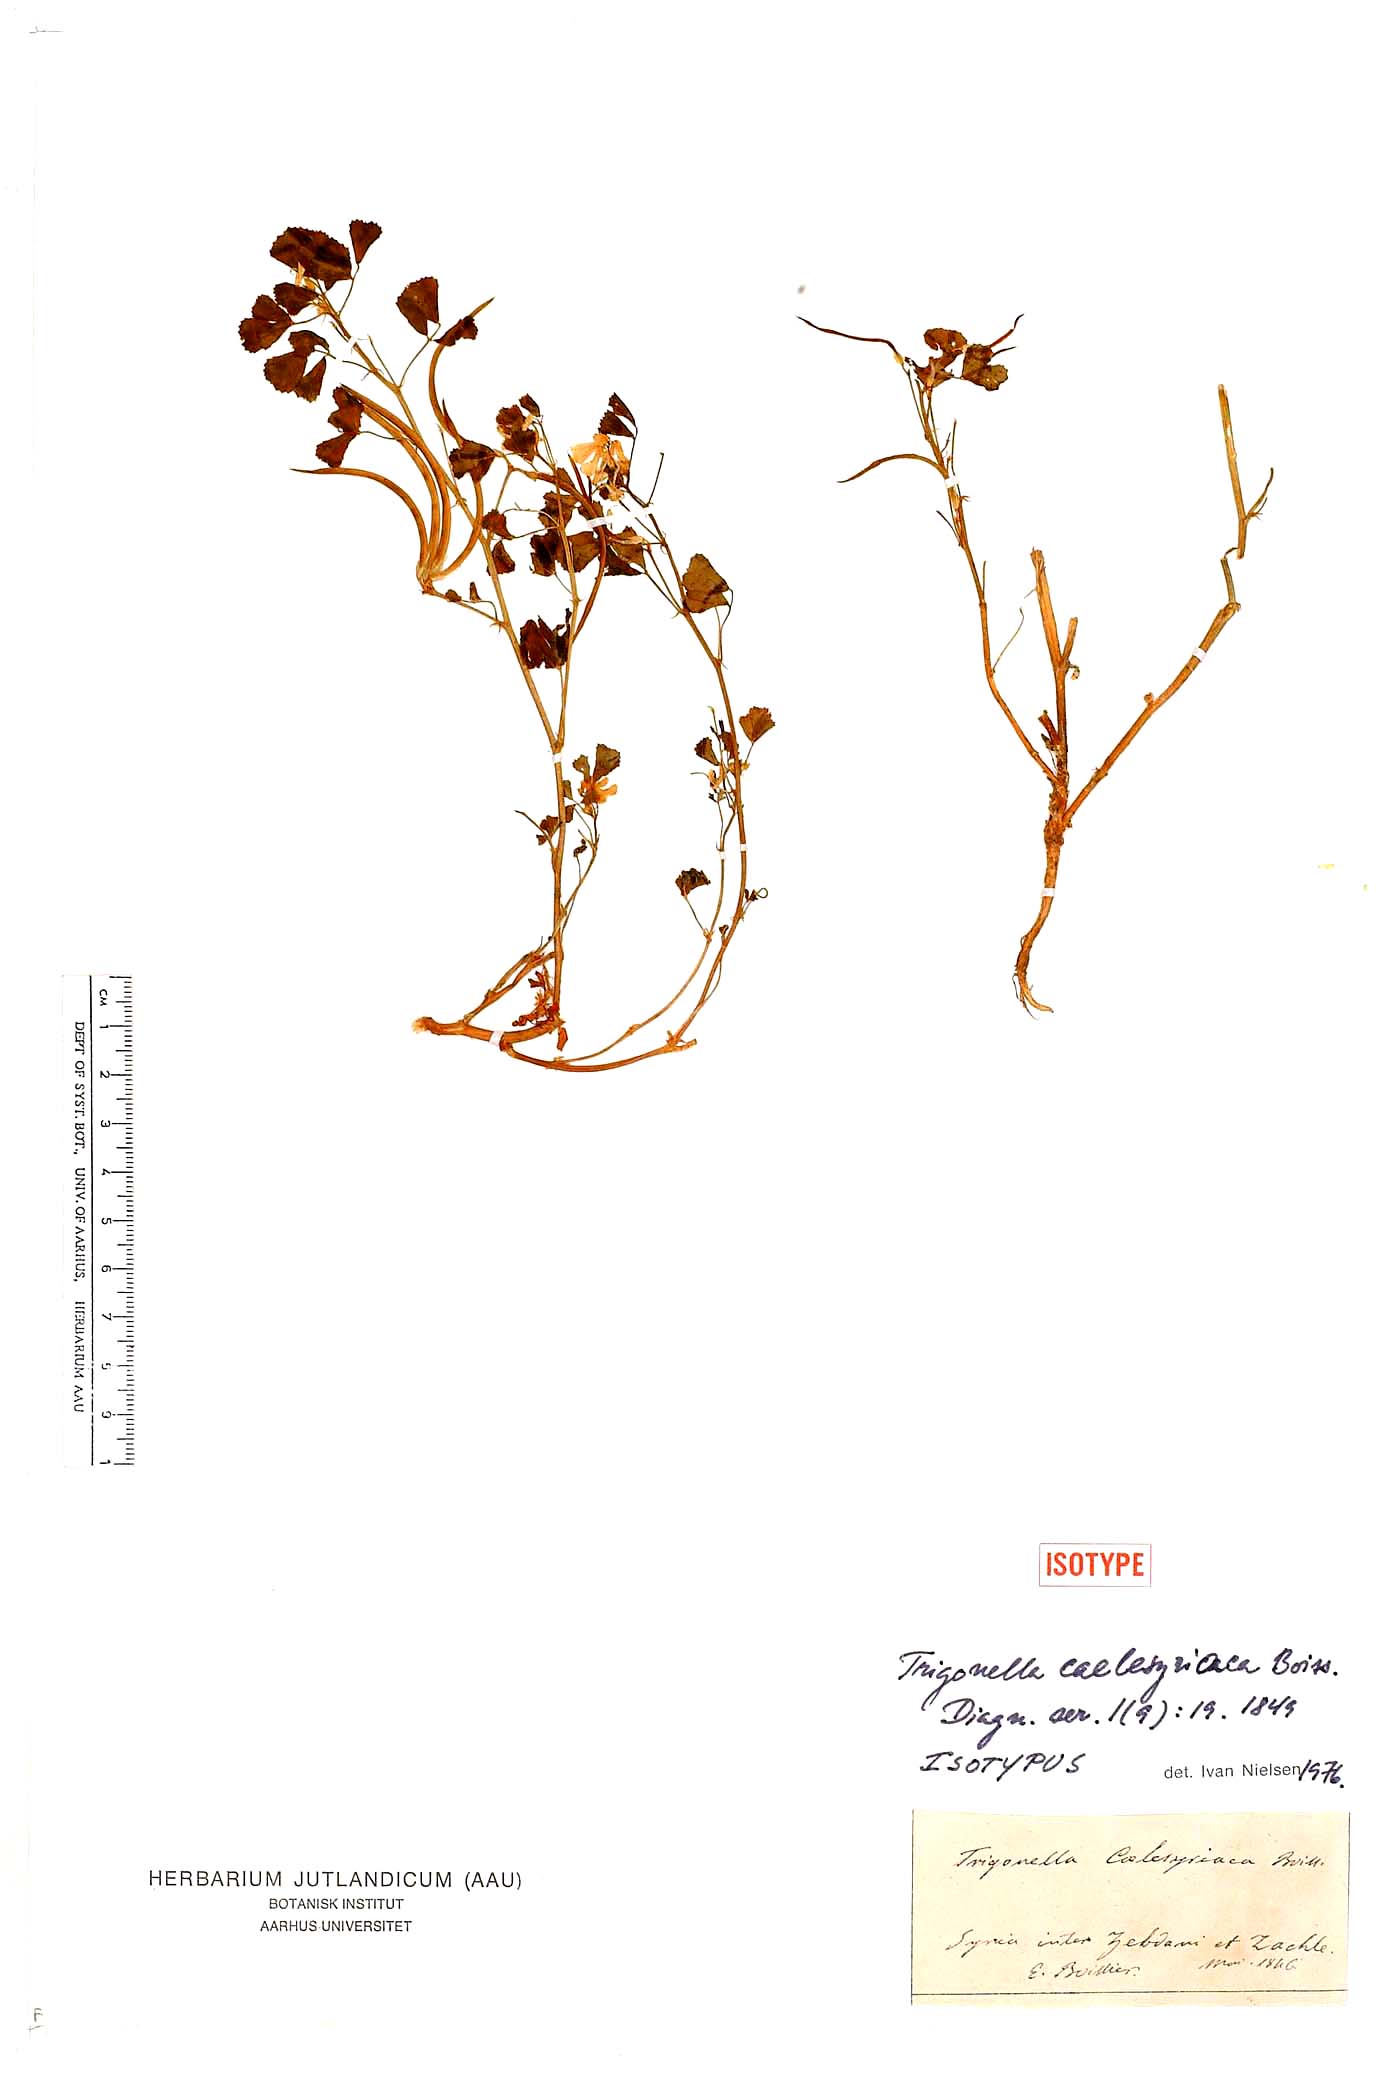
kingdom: Plantae
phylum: Tracheophyta
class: Magnoliopsida
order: Fabales
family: Fabaceae
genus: Trigonella
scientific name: Trigonella caelesyriaca
